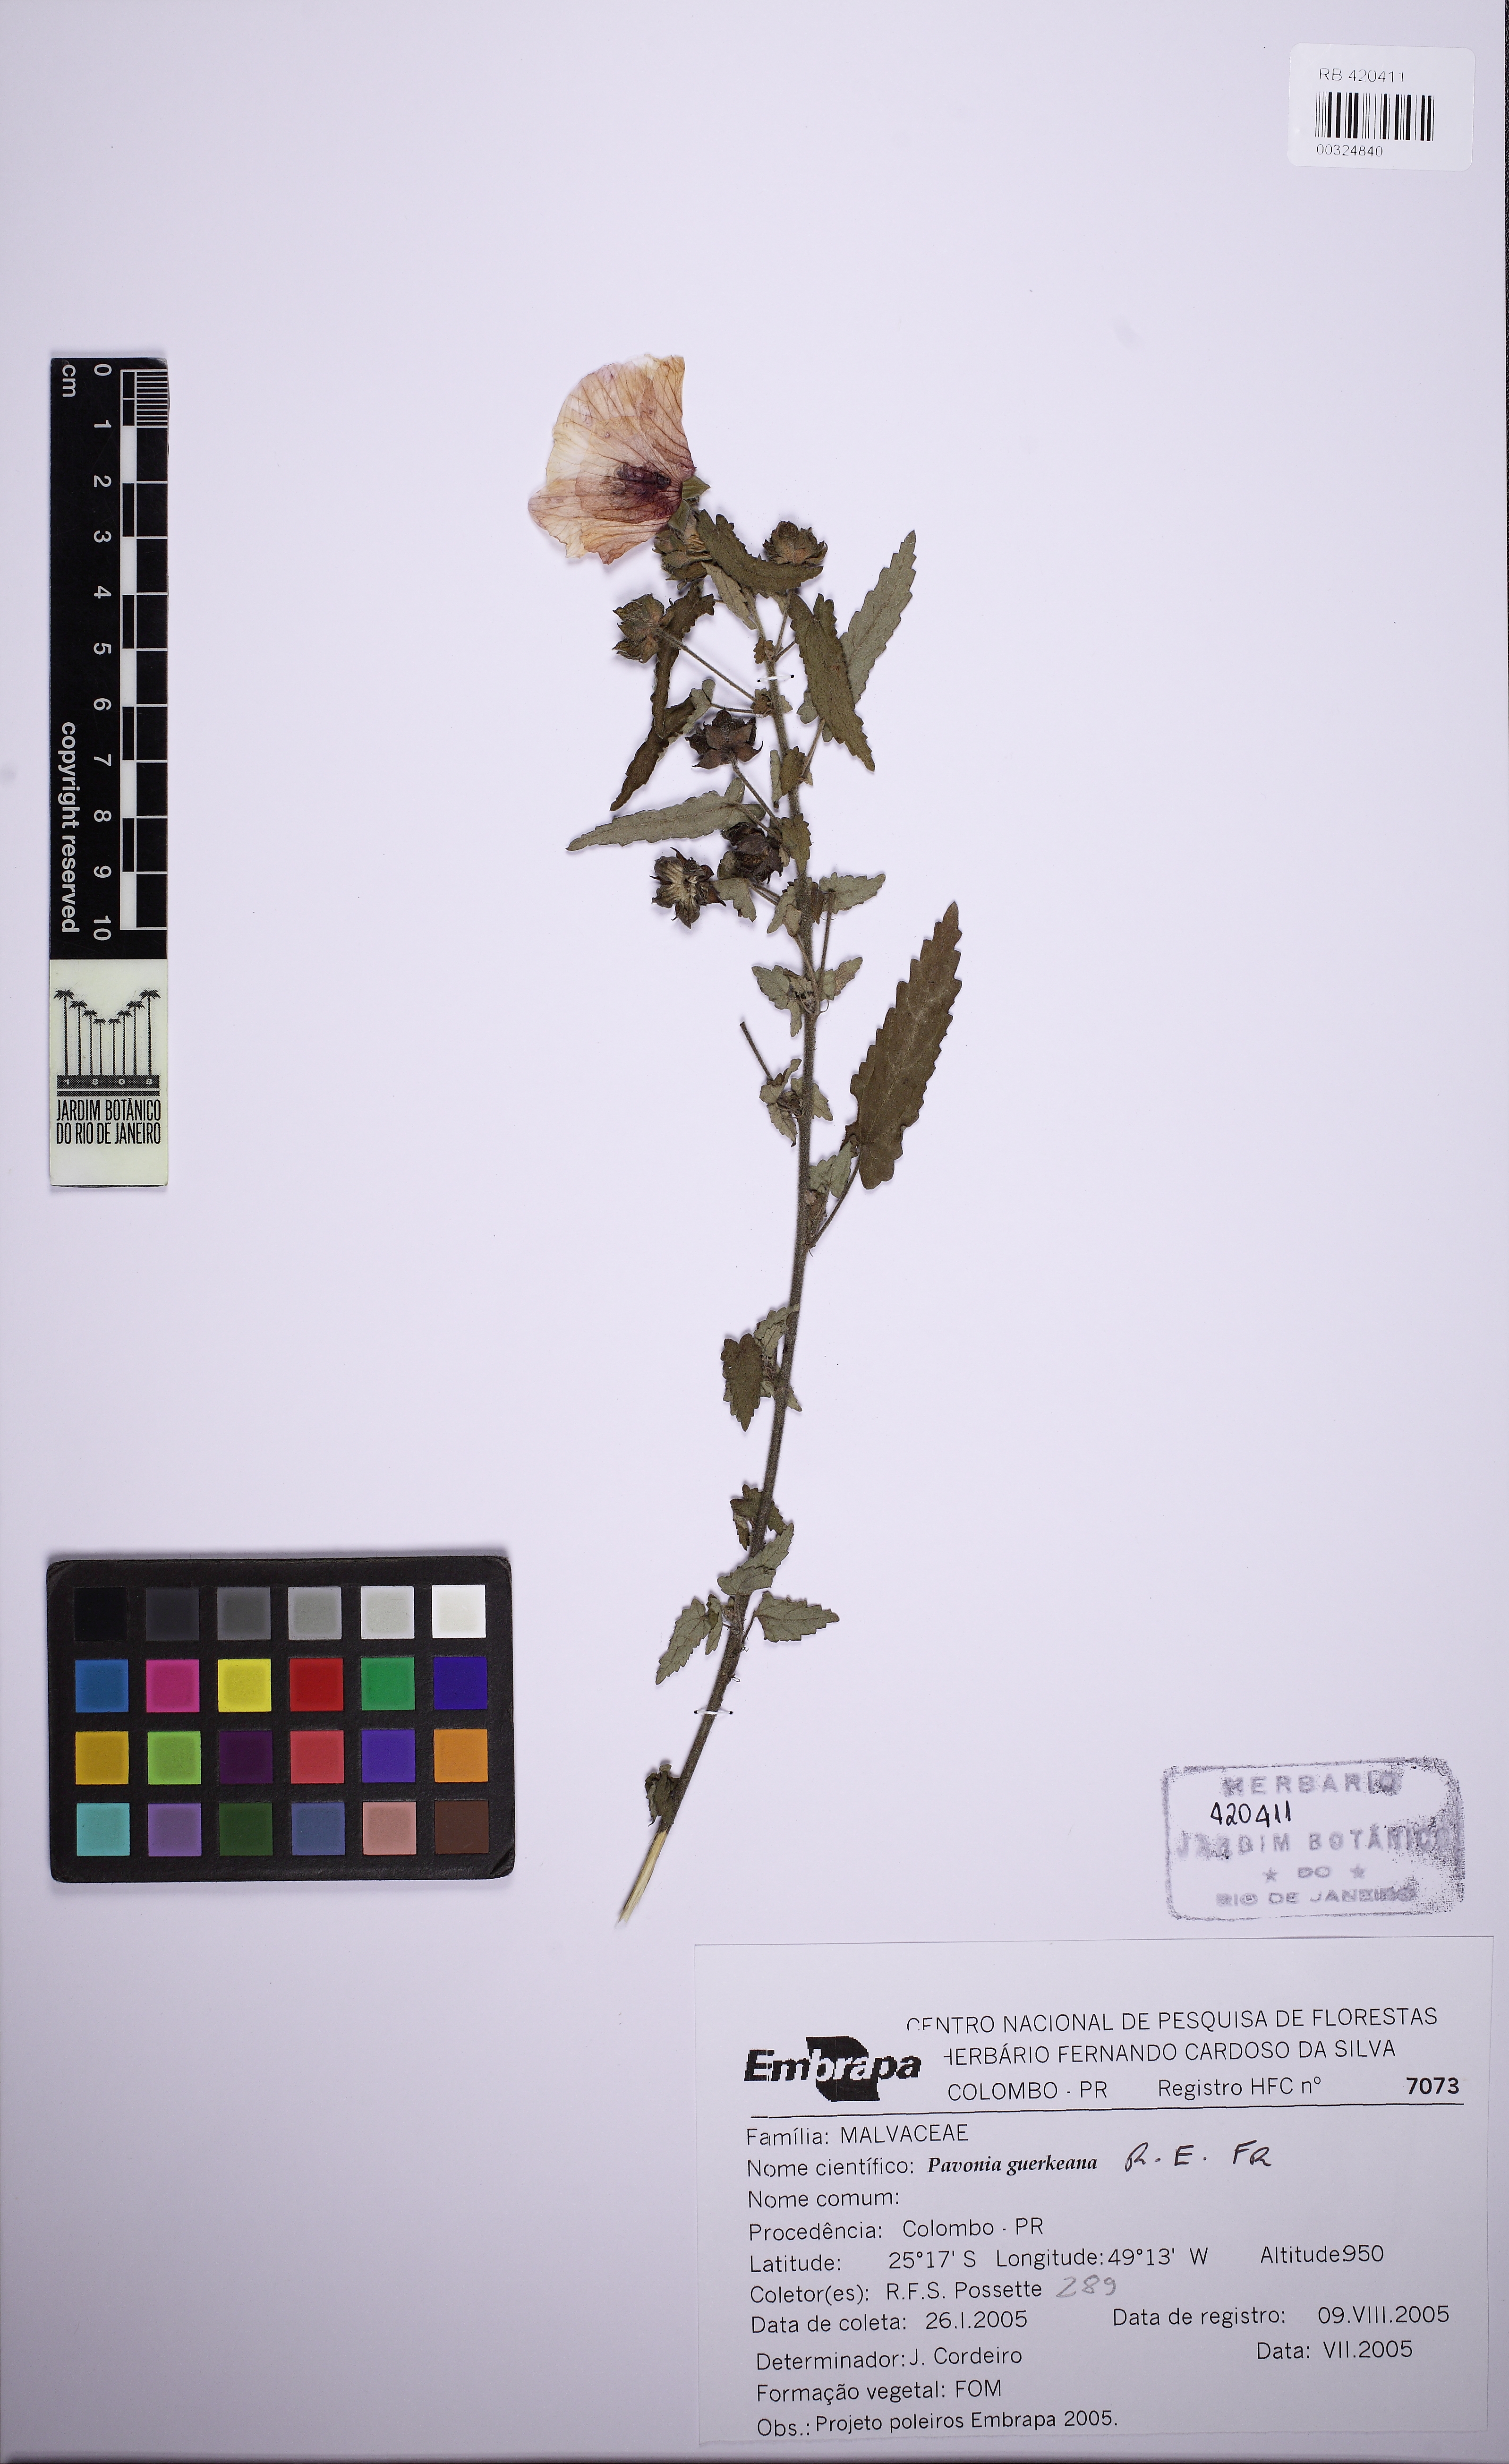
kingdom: Plantae
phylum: Tracheophyta
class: Magnoliopsida
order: Malvales
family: Malvaceae
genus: Pavonia
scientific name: Pavonia guerkeana
